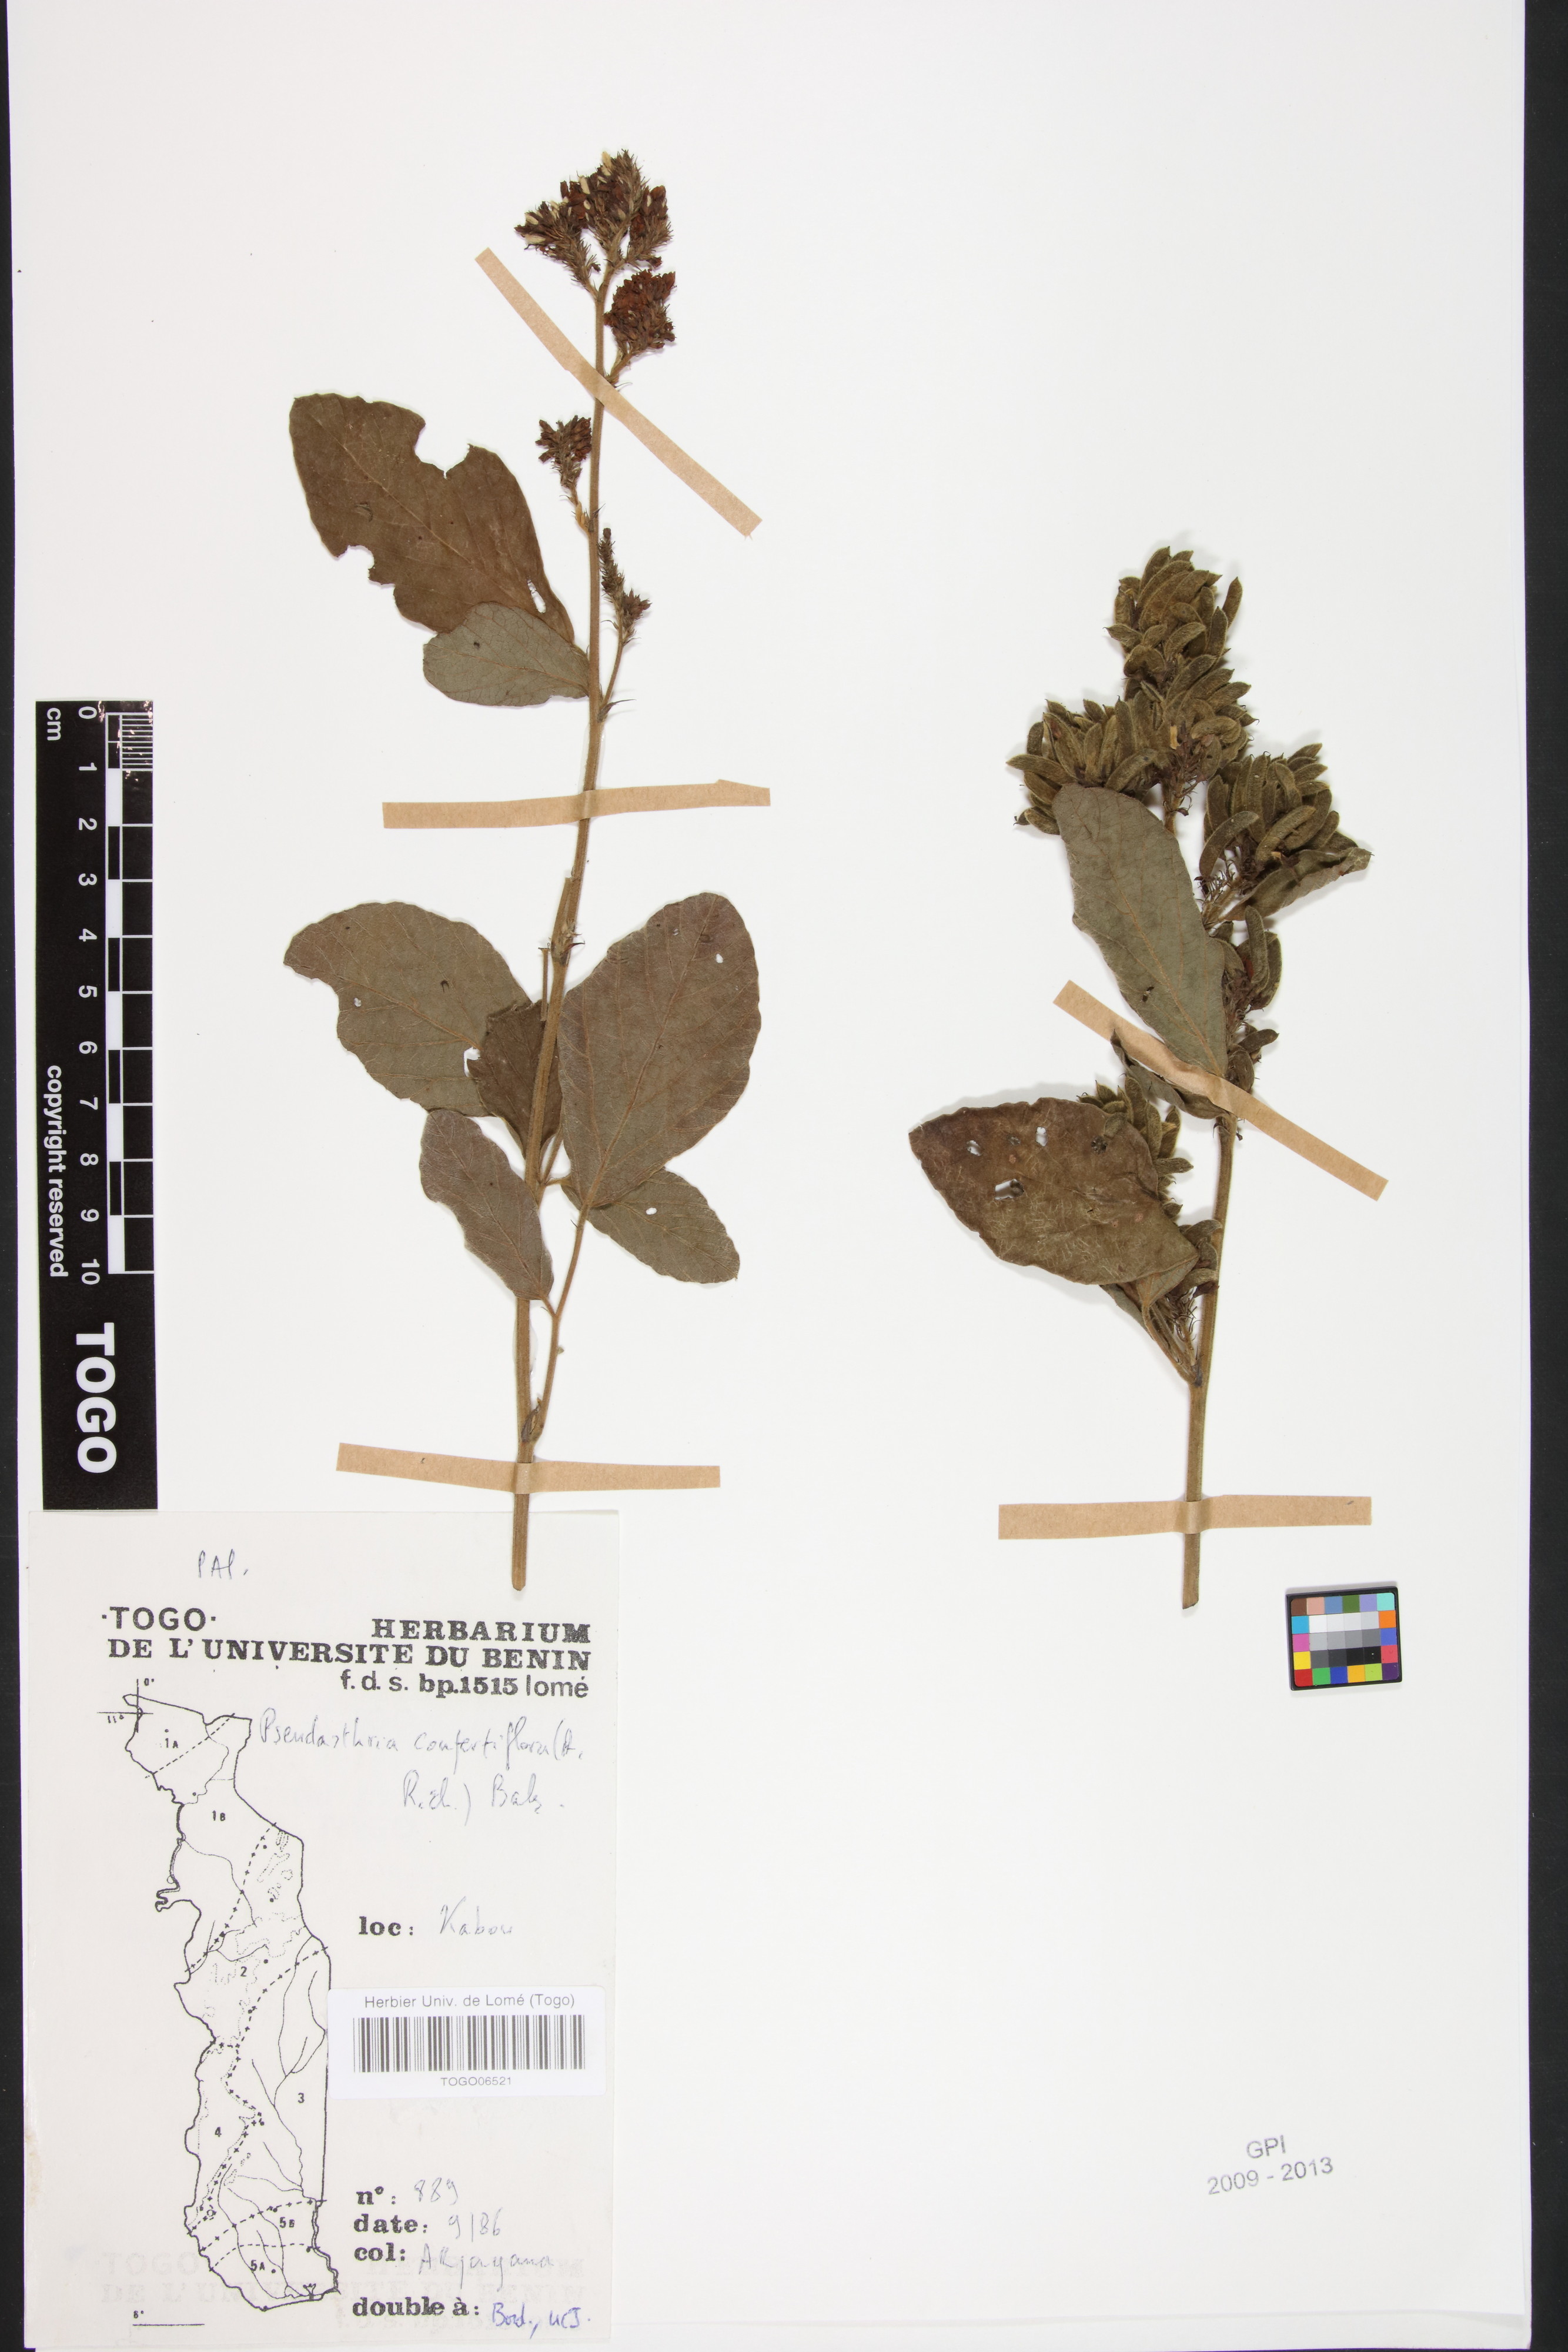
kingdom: Plantae
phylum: Tracheophyta
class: Magnoliopsida
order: Fabales
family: Fabaceae
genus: Pseudarthria
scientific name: Pseudarthria confertiflora
